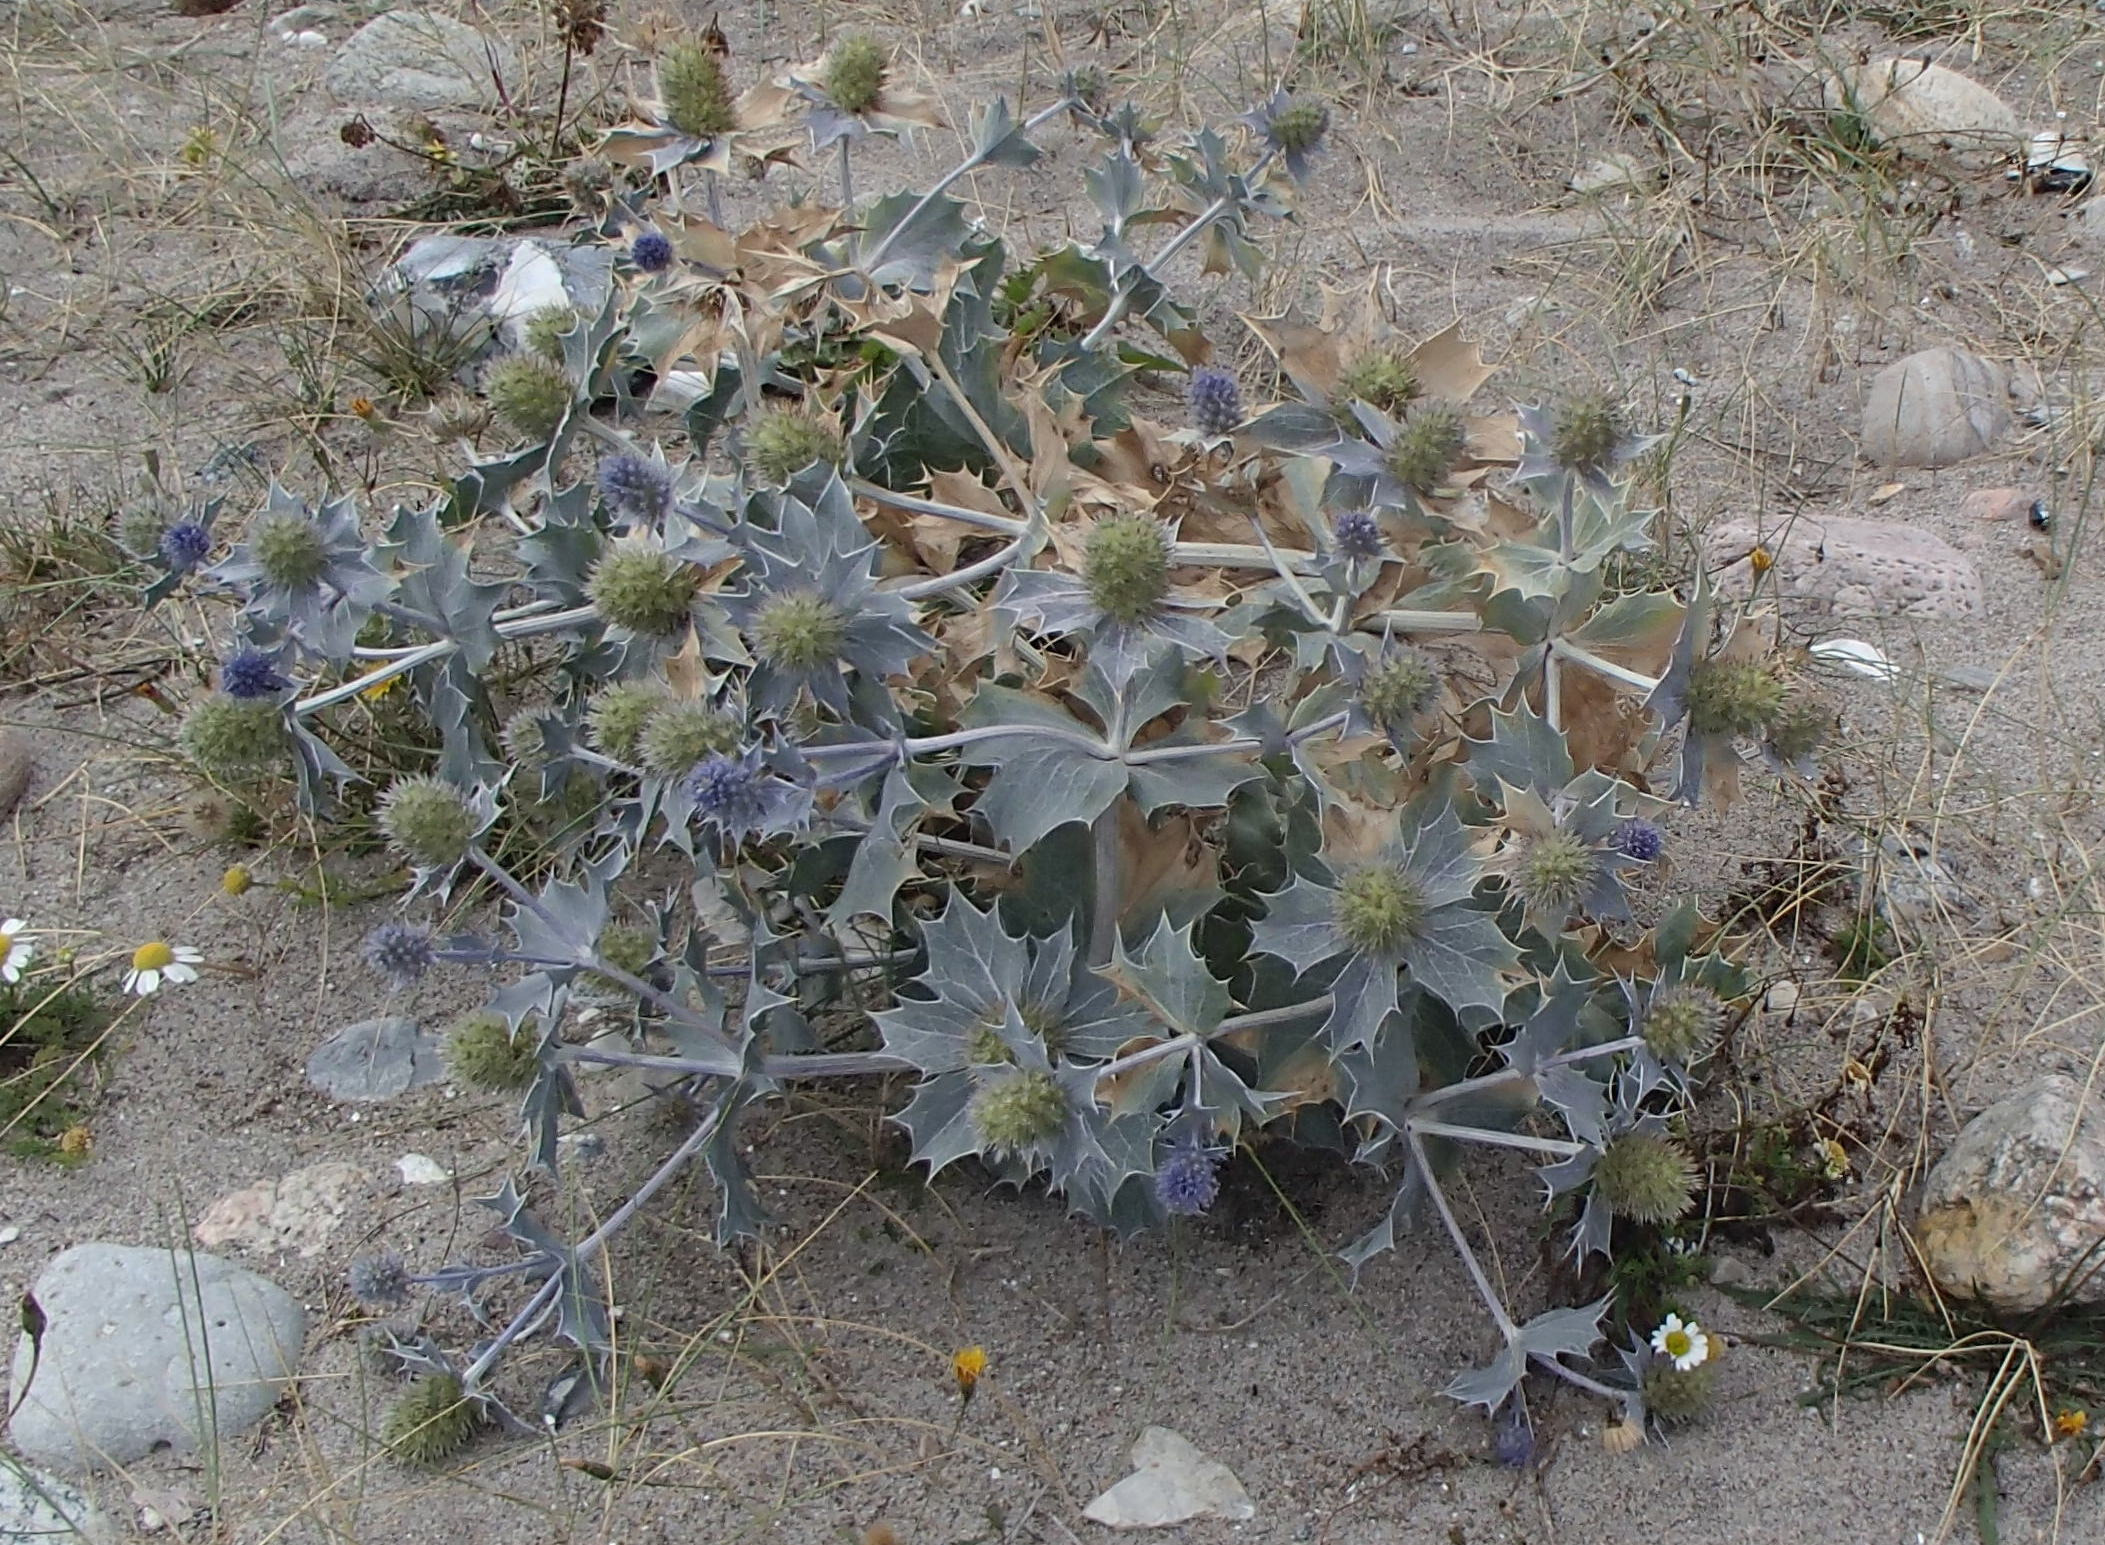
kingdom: Plantae
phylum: Tracheophyta
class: Magnoliopsida
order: Apiales
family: Apiaceae
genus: Eryngium
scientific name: Eryngium maritimum
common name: Strand-mandstro
